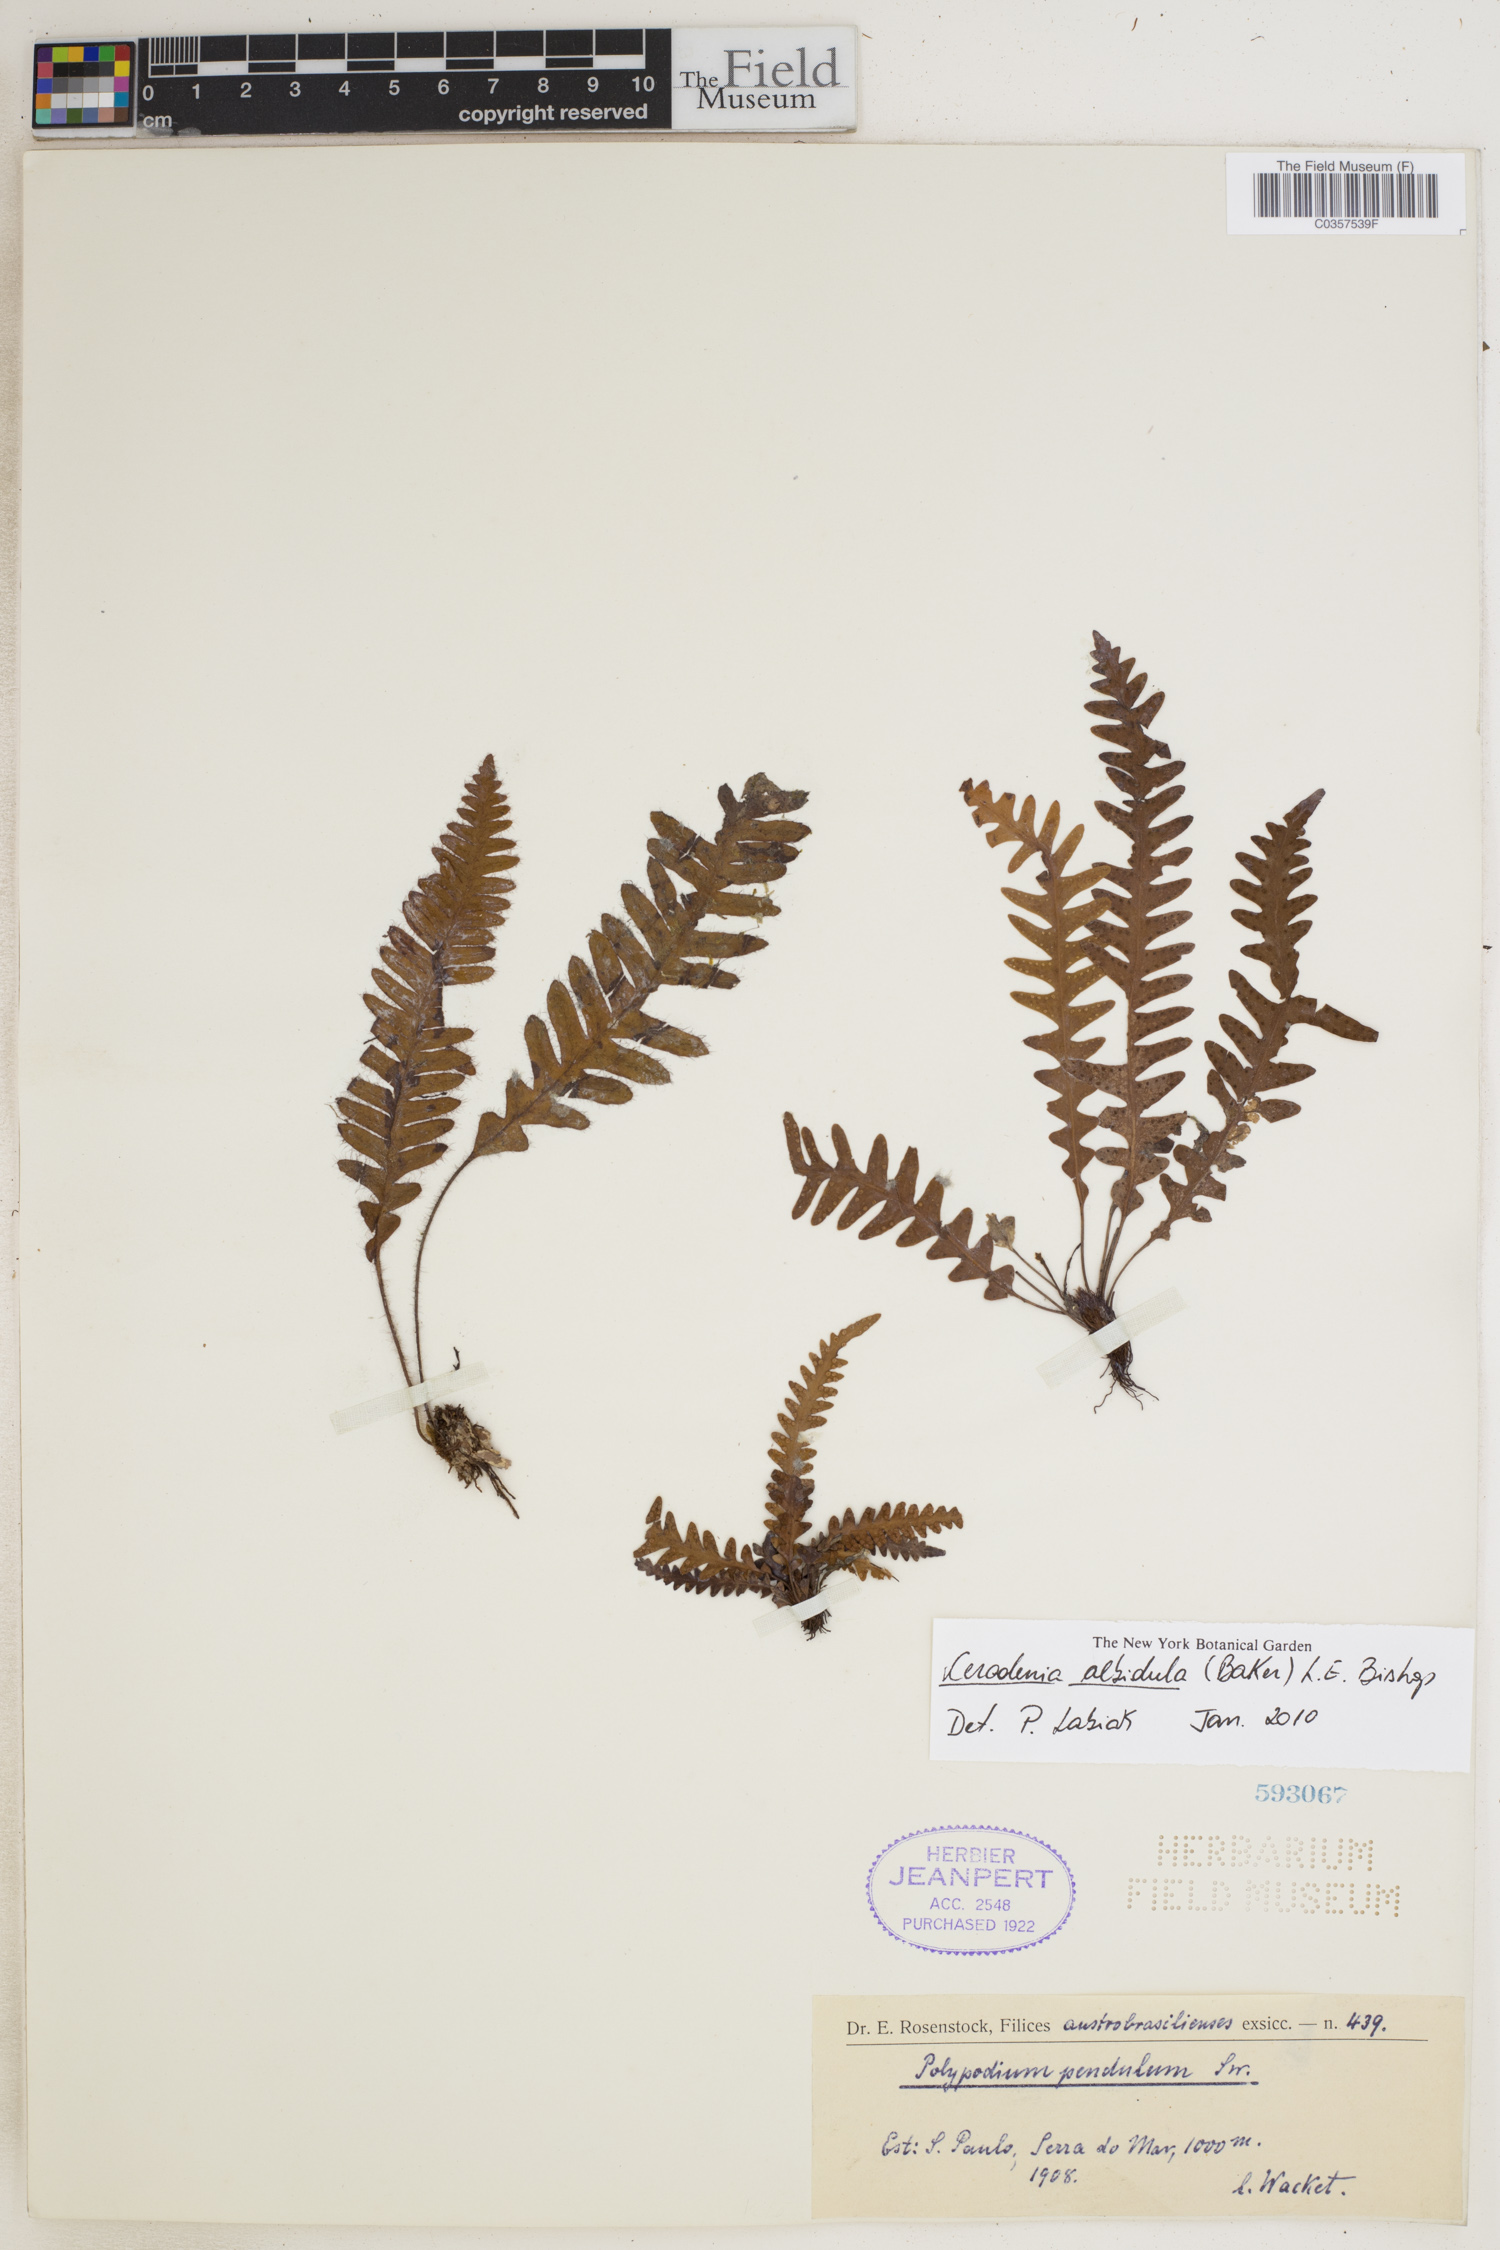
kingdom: Plantae
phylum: Tracheophyta
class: Polypodiopsida
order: Polypodiales
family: Polypodiaceae
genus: Ceradenia
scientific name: Ceradenia albidula
